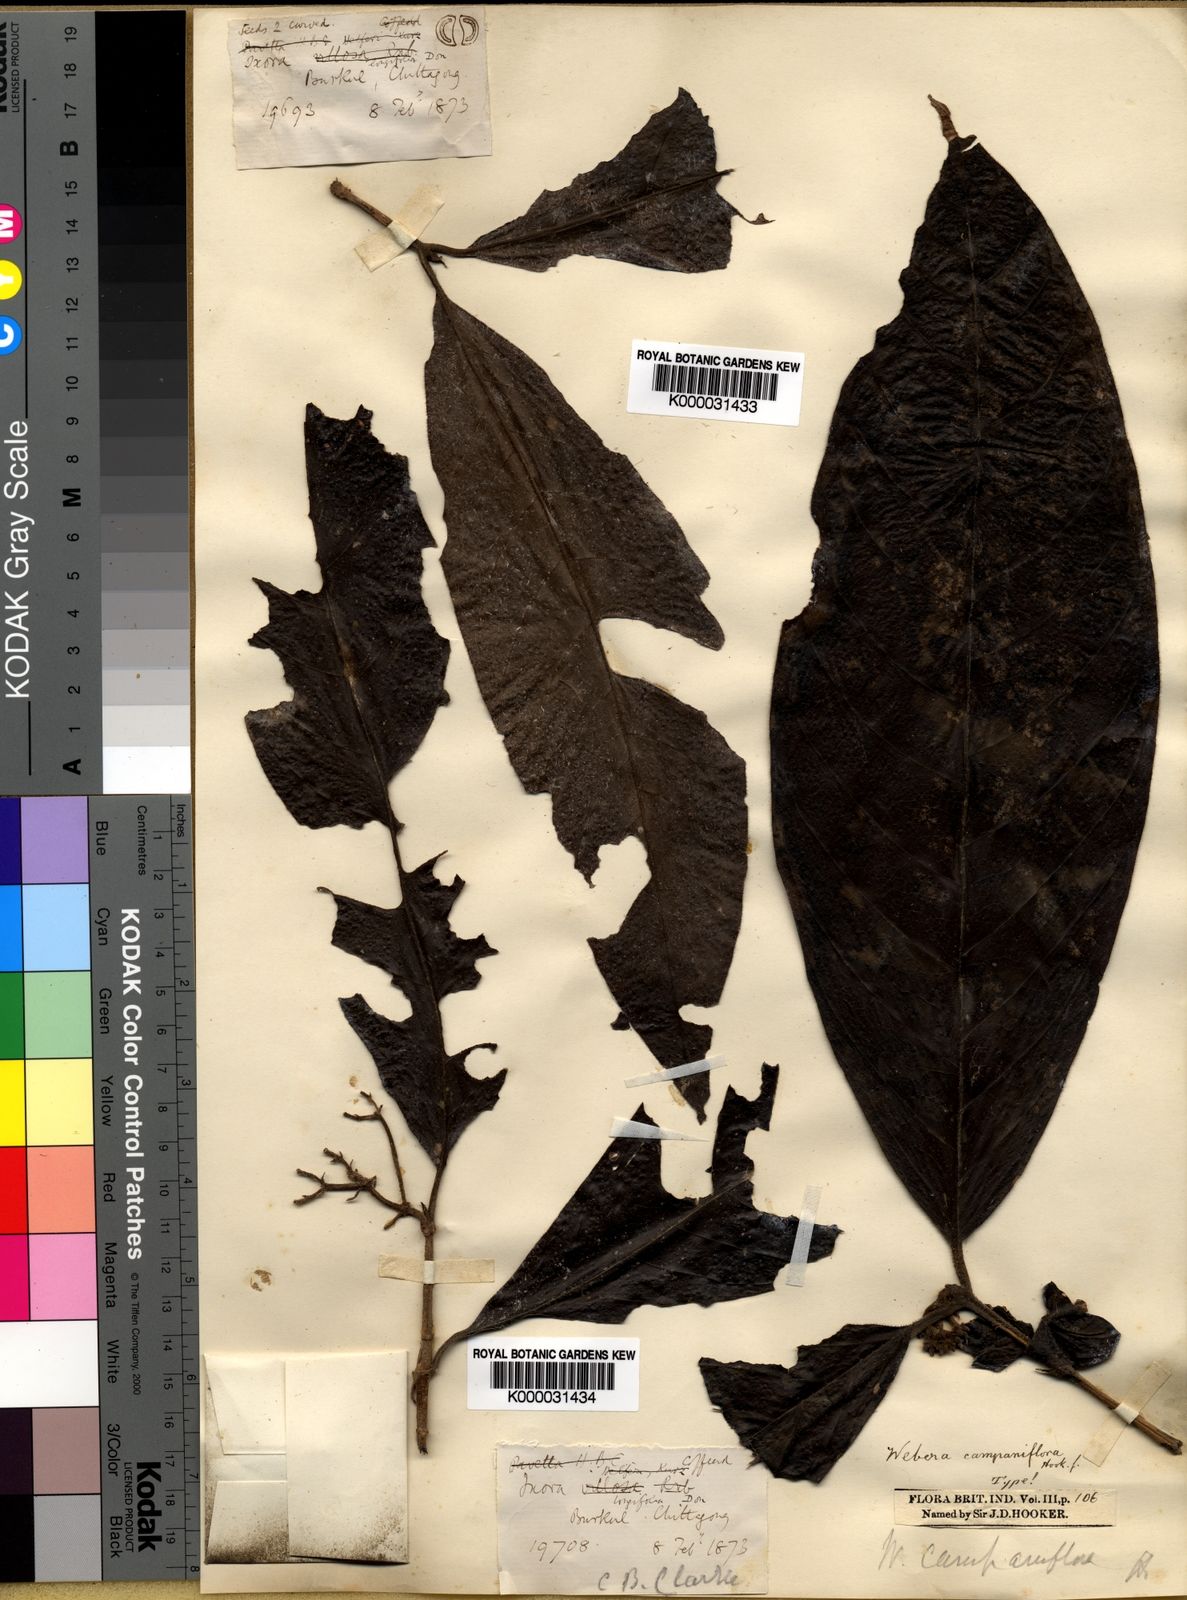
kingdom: Plantae
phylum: Tracheophyta
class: Magnoliopsida
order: Gentianales
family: Rubiaceae
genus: Tarenna
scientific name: Tarenna helferi
